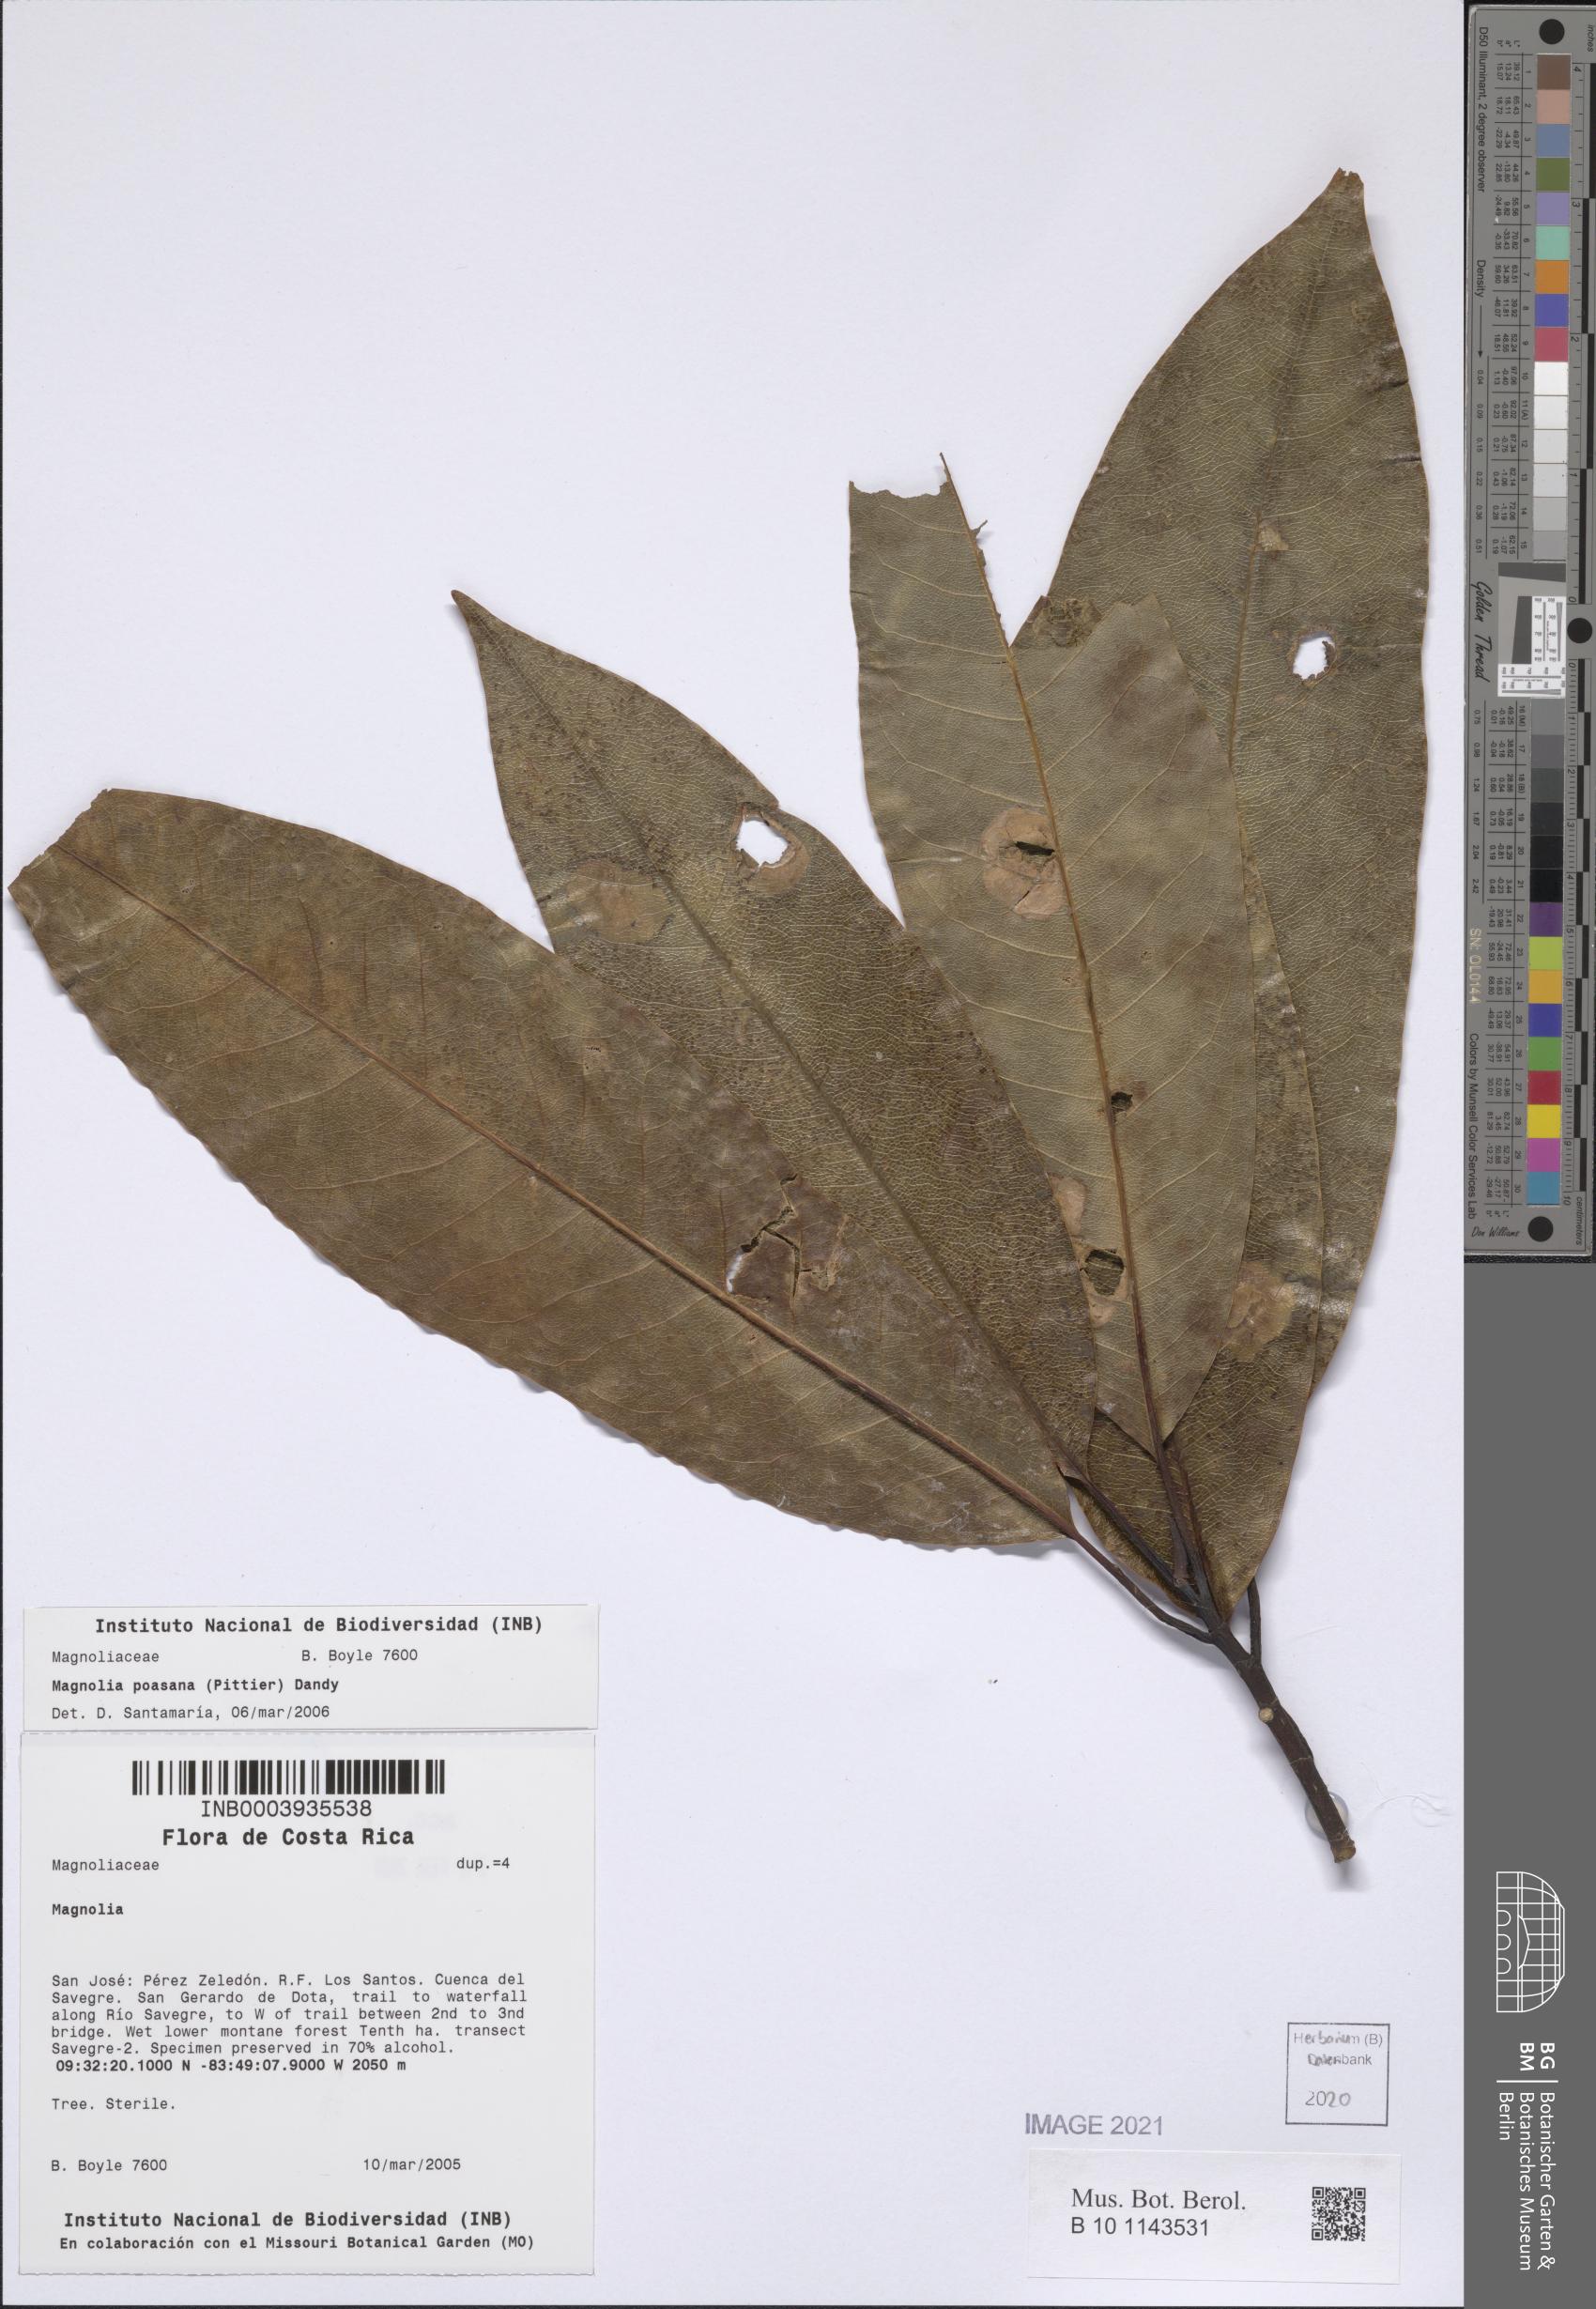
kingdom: Plantae
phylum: Tracheophyta
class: Magnoliopsida
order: Magnoliales
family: Magnoliaceae
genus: Magnolia
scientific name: Magnolia poasana
